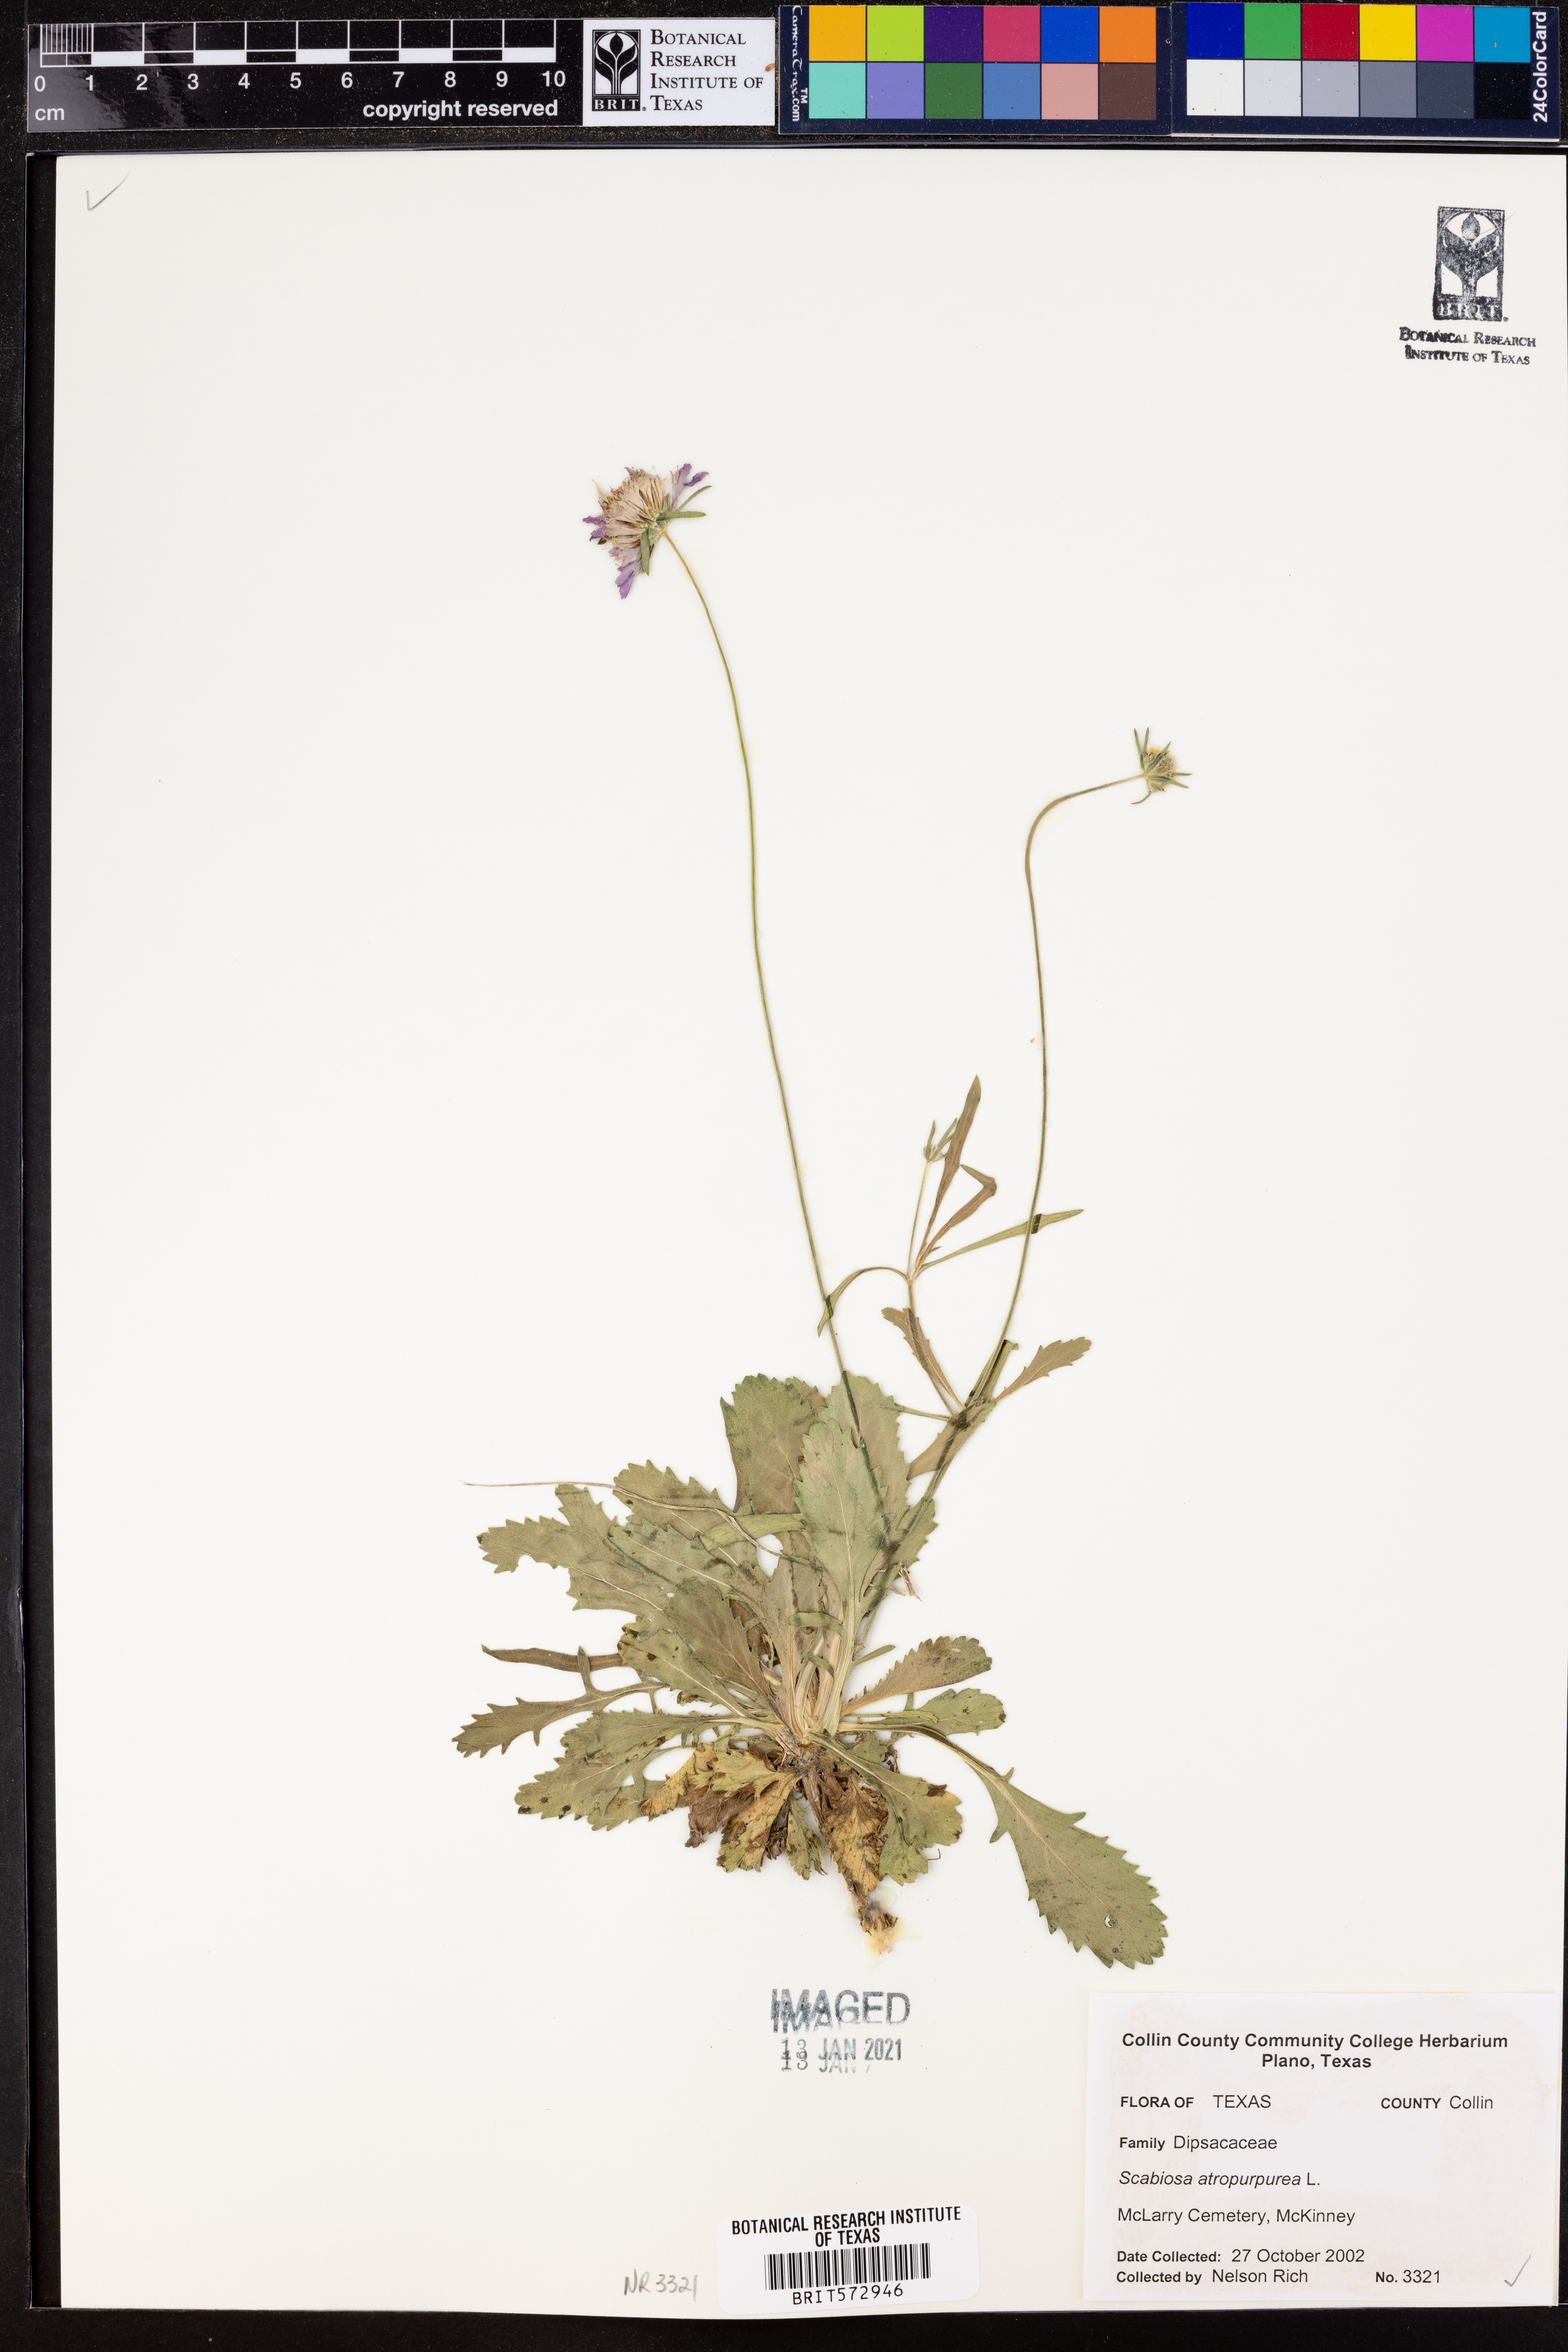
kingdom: Plantae
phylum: Tracheophyta
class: Magnoliopsida
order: Dipsacales
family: Caprifoliaceae
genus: Sixalix
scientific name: Sixalix atropurpurea
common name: Sweet scabious
